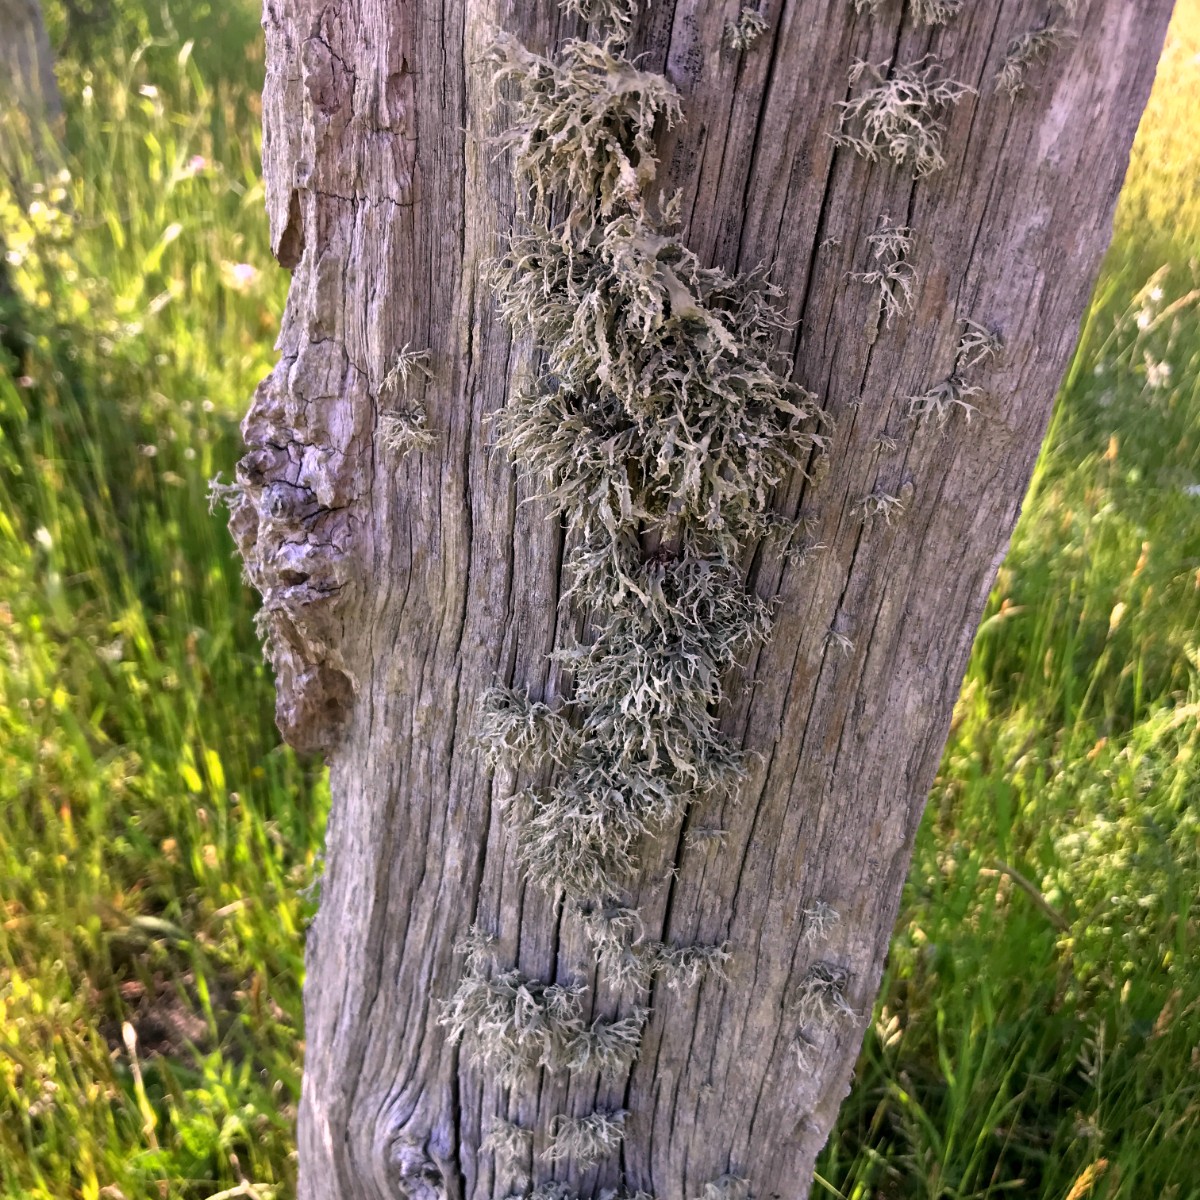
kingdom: Fungi
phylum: Ascomycota
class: Lecanoromycetes
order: Lecanorales
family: Ramalinaceae
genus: Ramalina
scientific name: Ramalina farinacea
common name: melet grenlav
